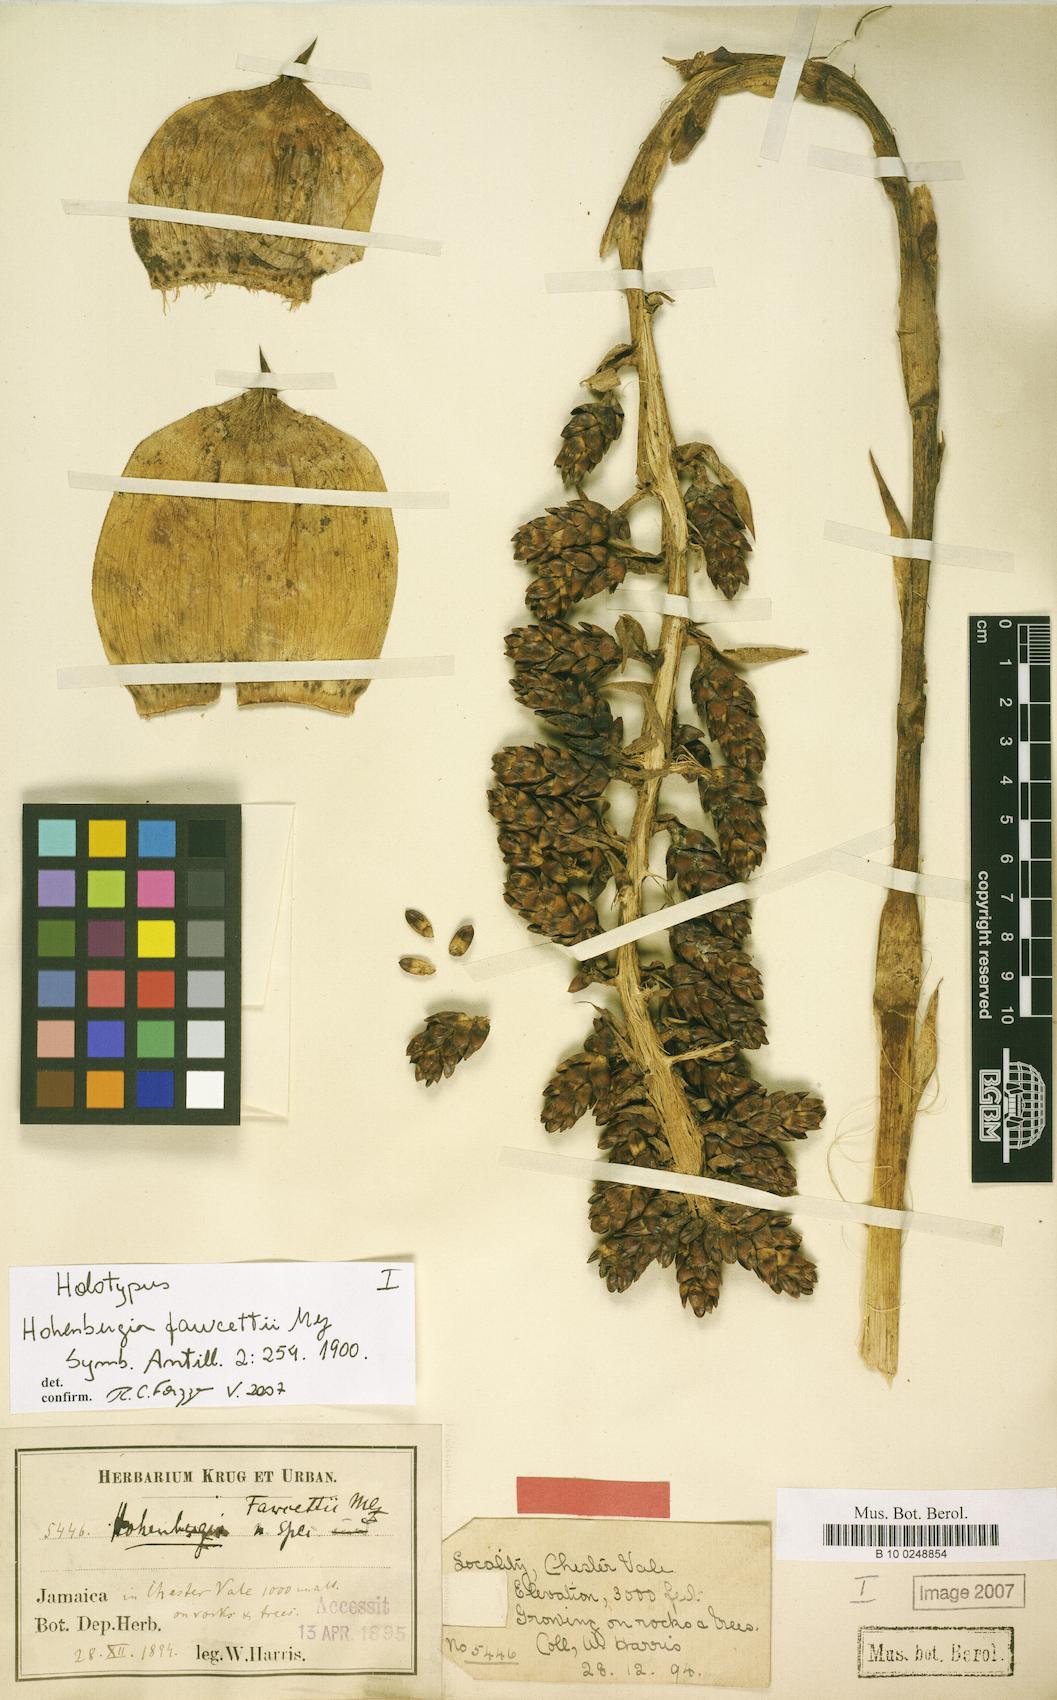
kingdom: Plantae
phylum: Tracheophyta
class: Liliopsida
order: Poales
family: Bromeliaceae
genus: Wittmackia
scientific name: Wittmackia fawcettii
